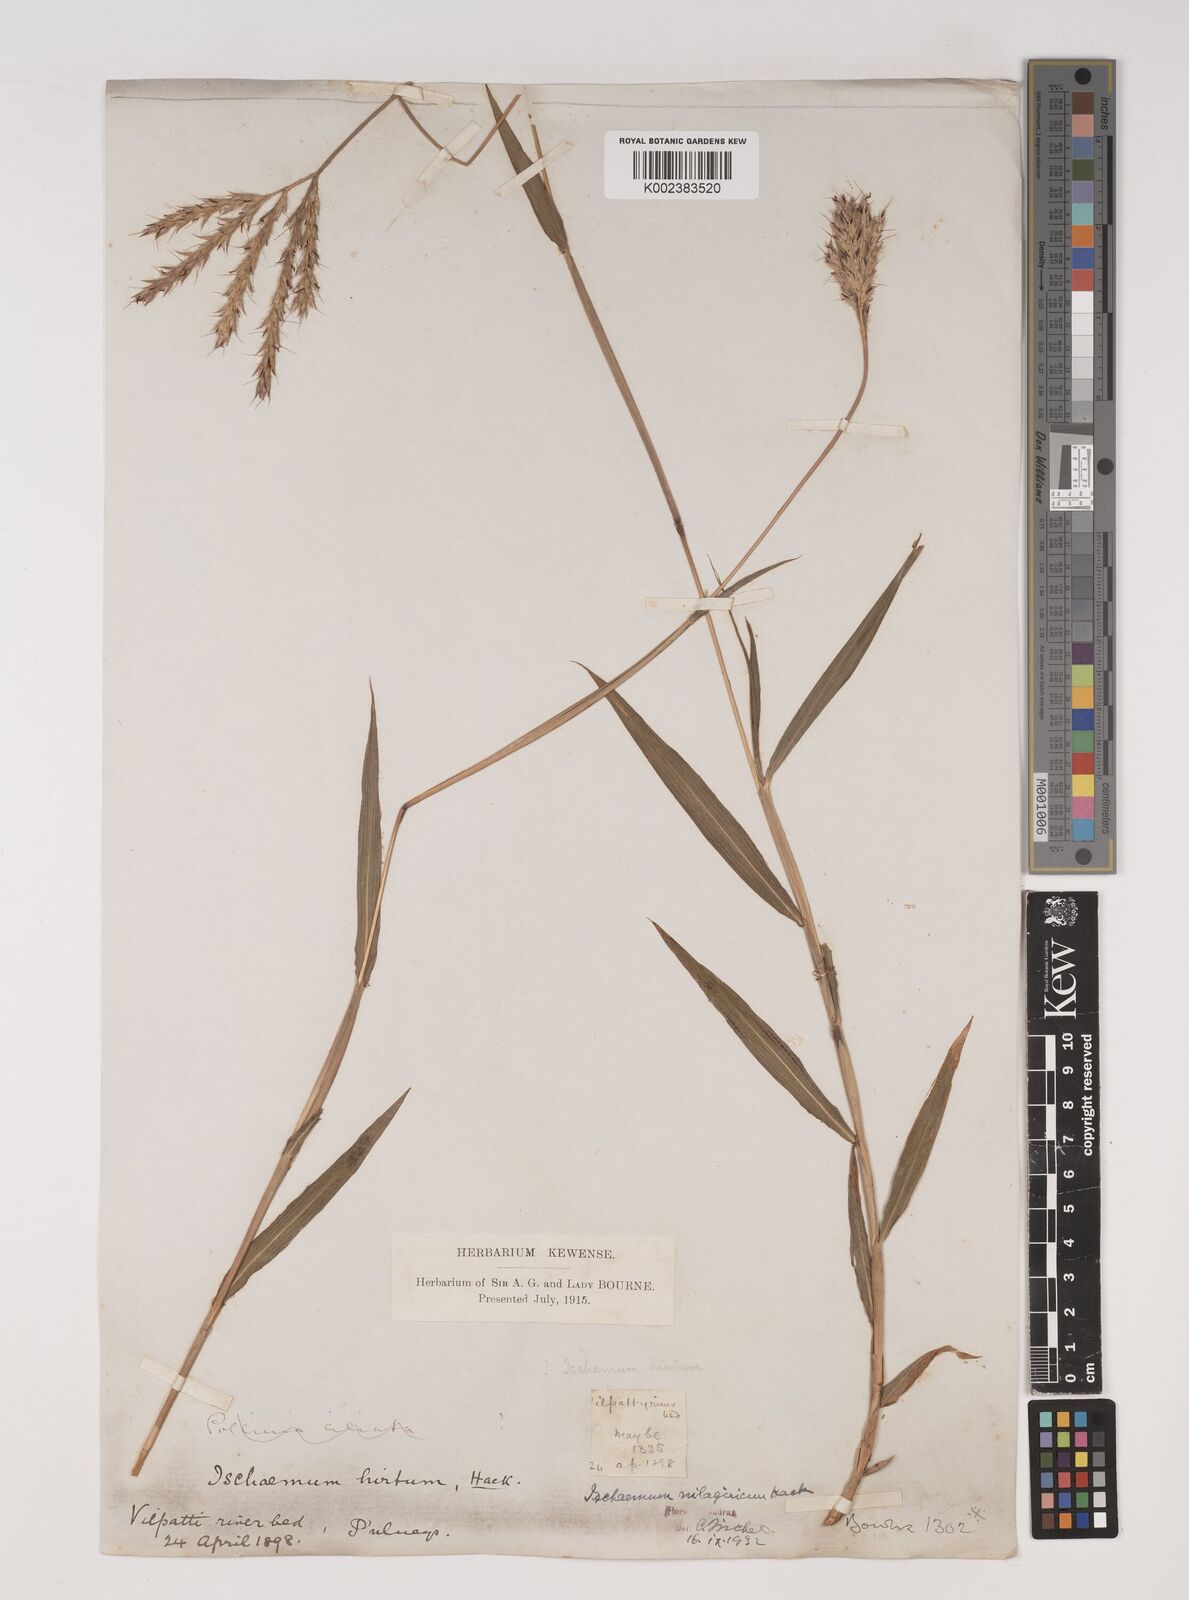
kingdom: Plantae
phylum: Tracheophyta
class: Liliopsida
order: Poales
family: Poaceae
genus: Ischaemum
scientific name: Ischaemum
